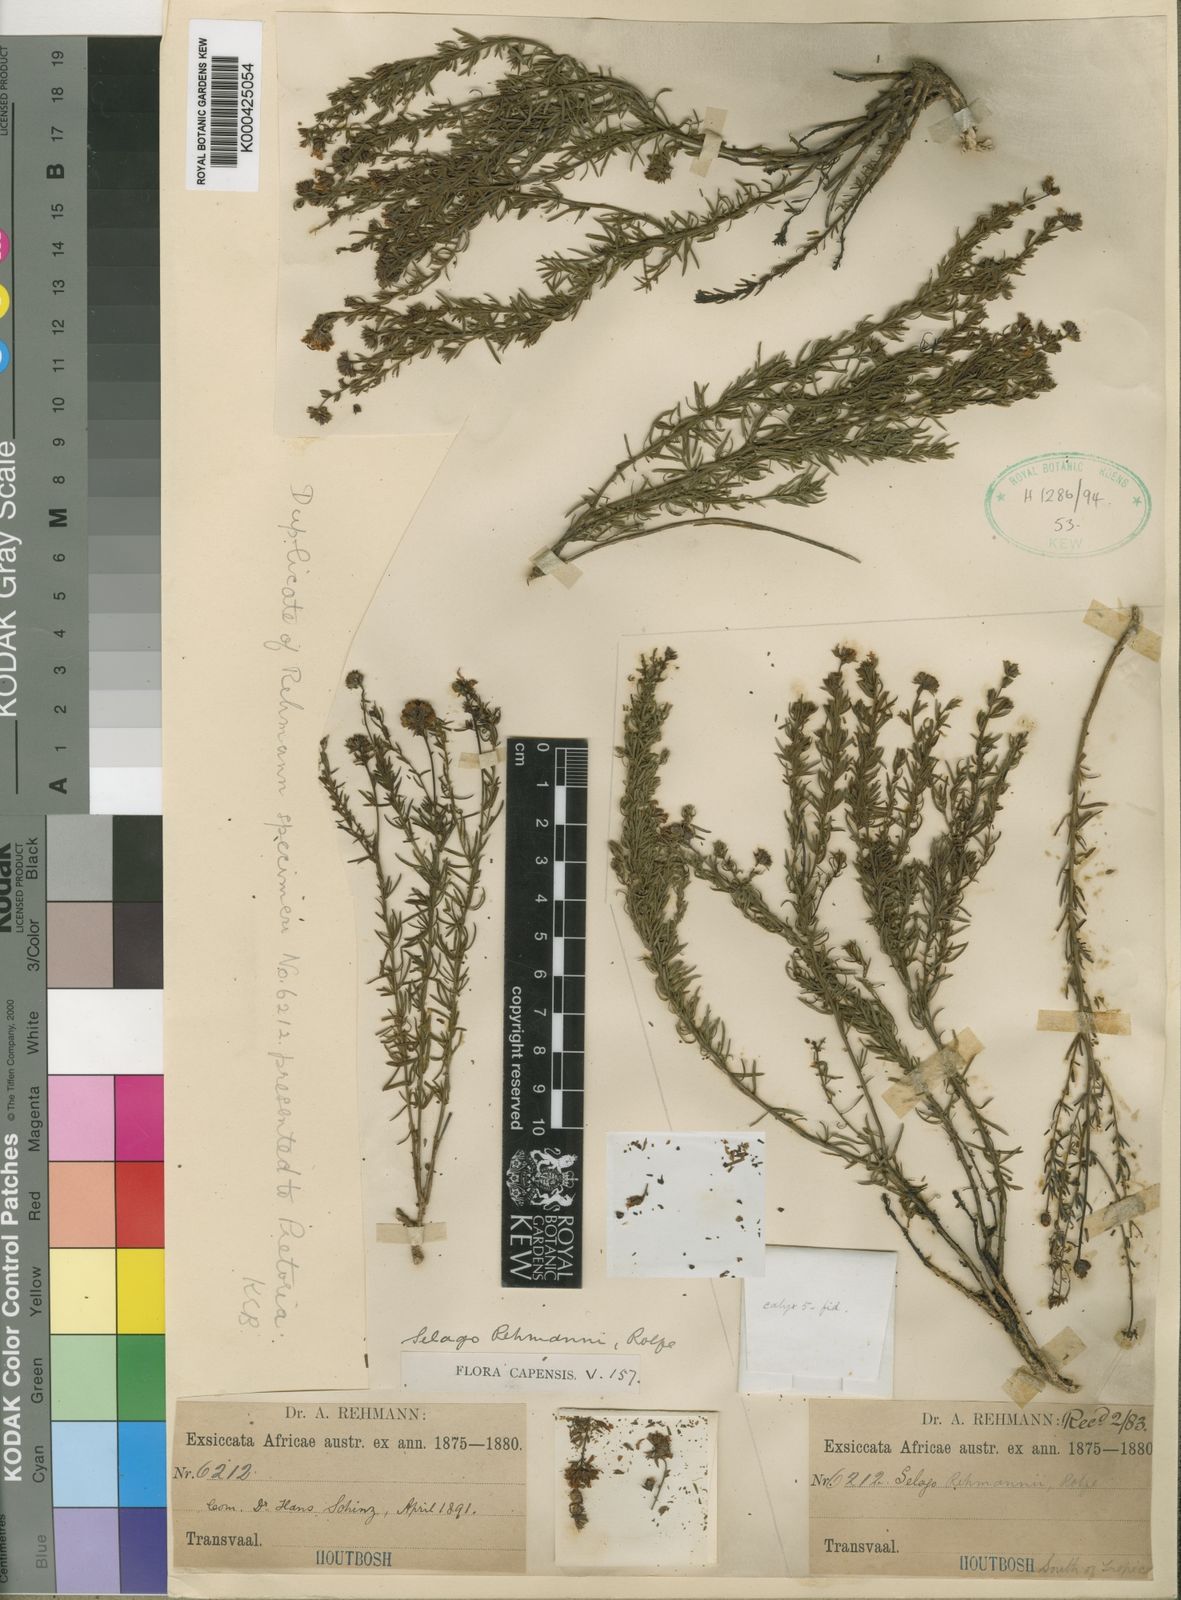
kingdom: Plantae
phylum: Tracheophyta
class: Magnoliopsida
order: Lamiales
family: Scrophulariaceae
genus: Selago
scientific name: Selago rehmannii
